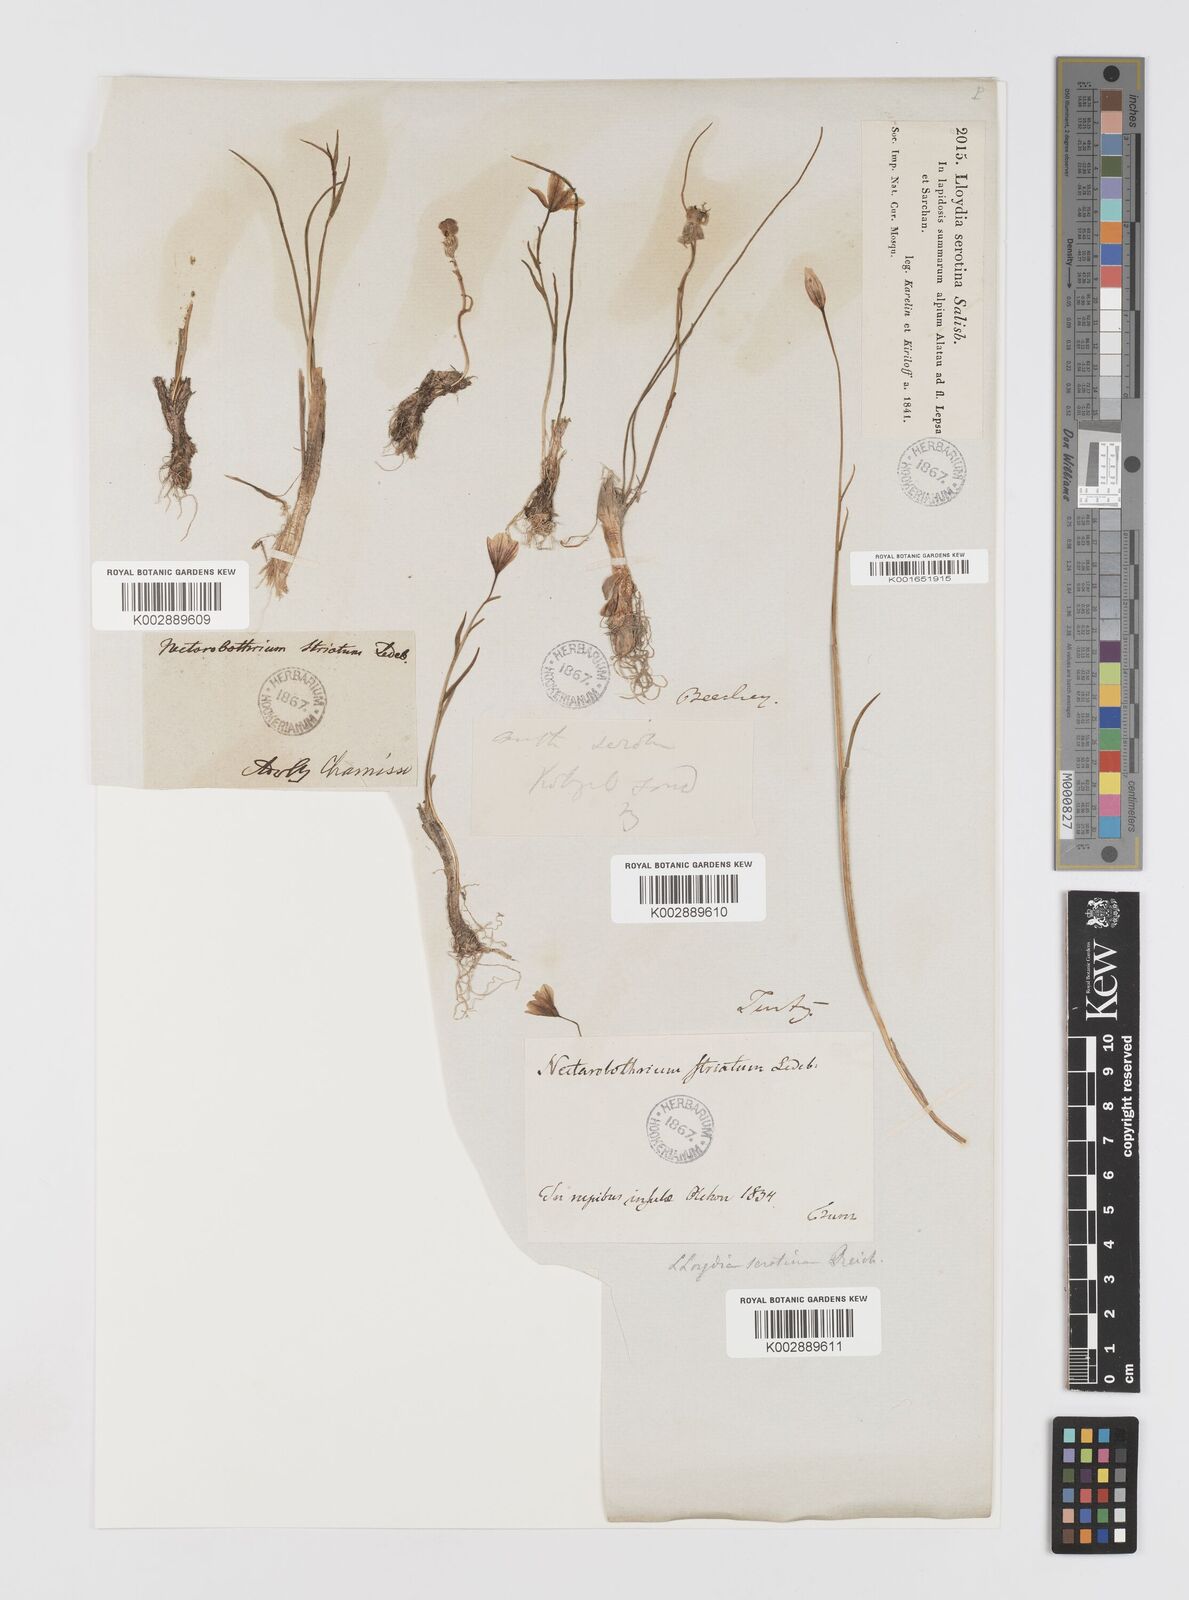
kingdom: Plantae
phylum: Tracheophyta
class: Liliopsida
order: Liliales
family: Liliaceae
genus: Gagea
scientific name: Gagea serotina
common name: Snowdon lily
